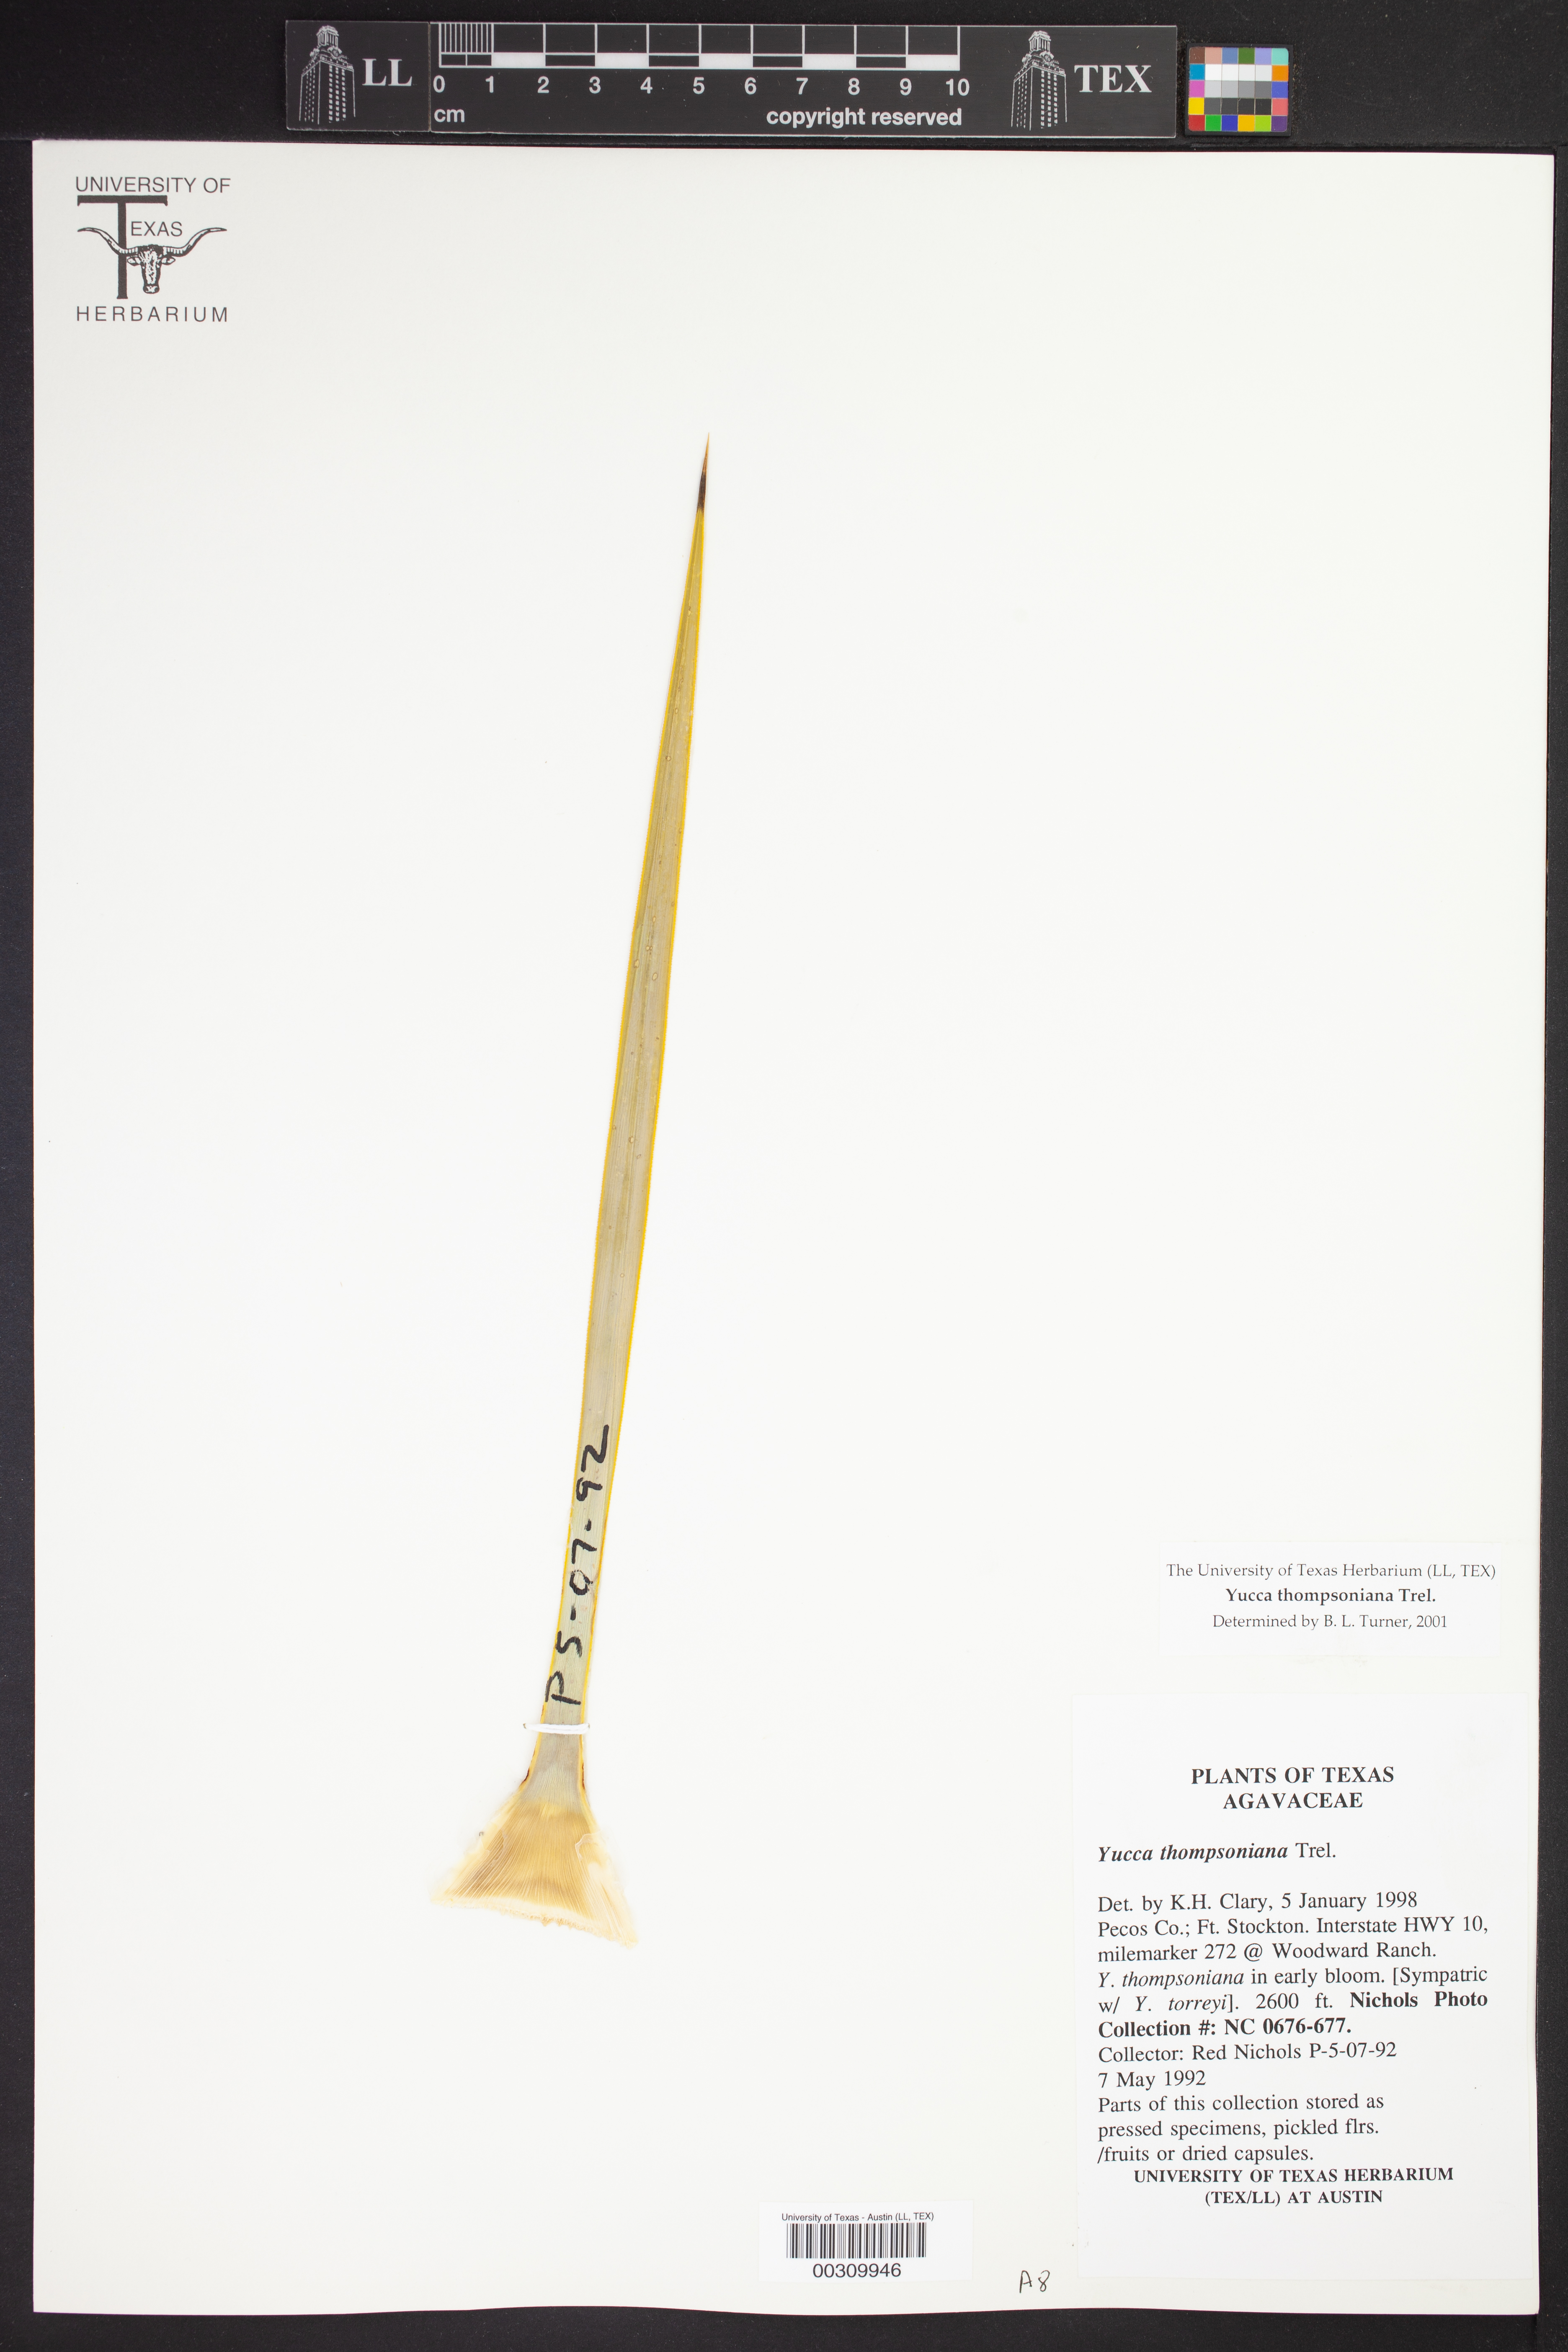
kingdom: Plantae
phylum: Tracheophyta
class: Liliopsida
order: Asparagales
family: Asparagaceae
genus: Yucca
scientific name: Yucca thompsoniana
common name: Trans-pecos yucca
